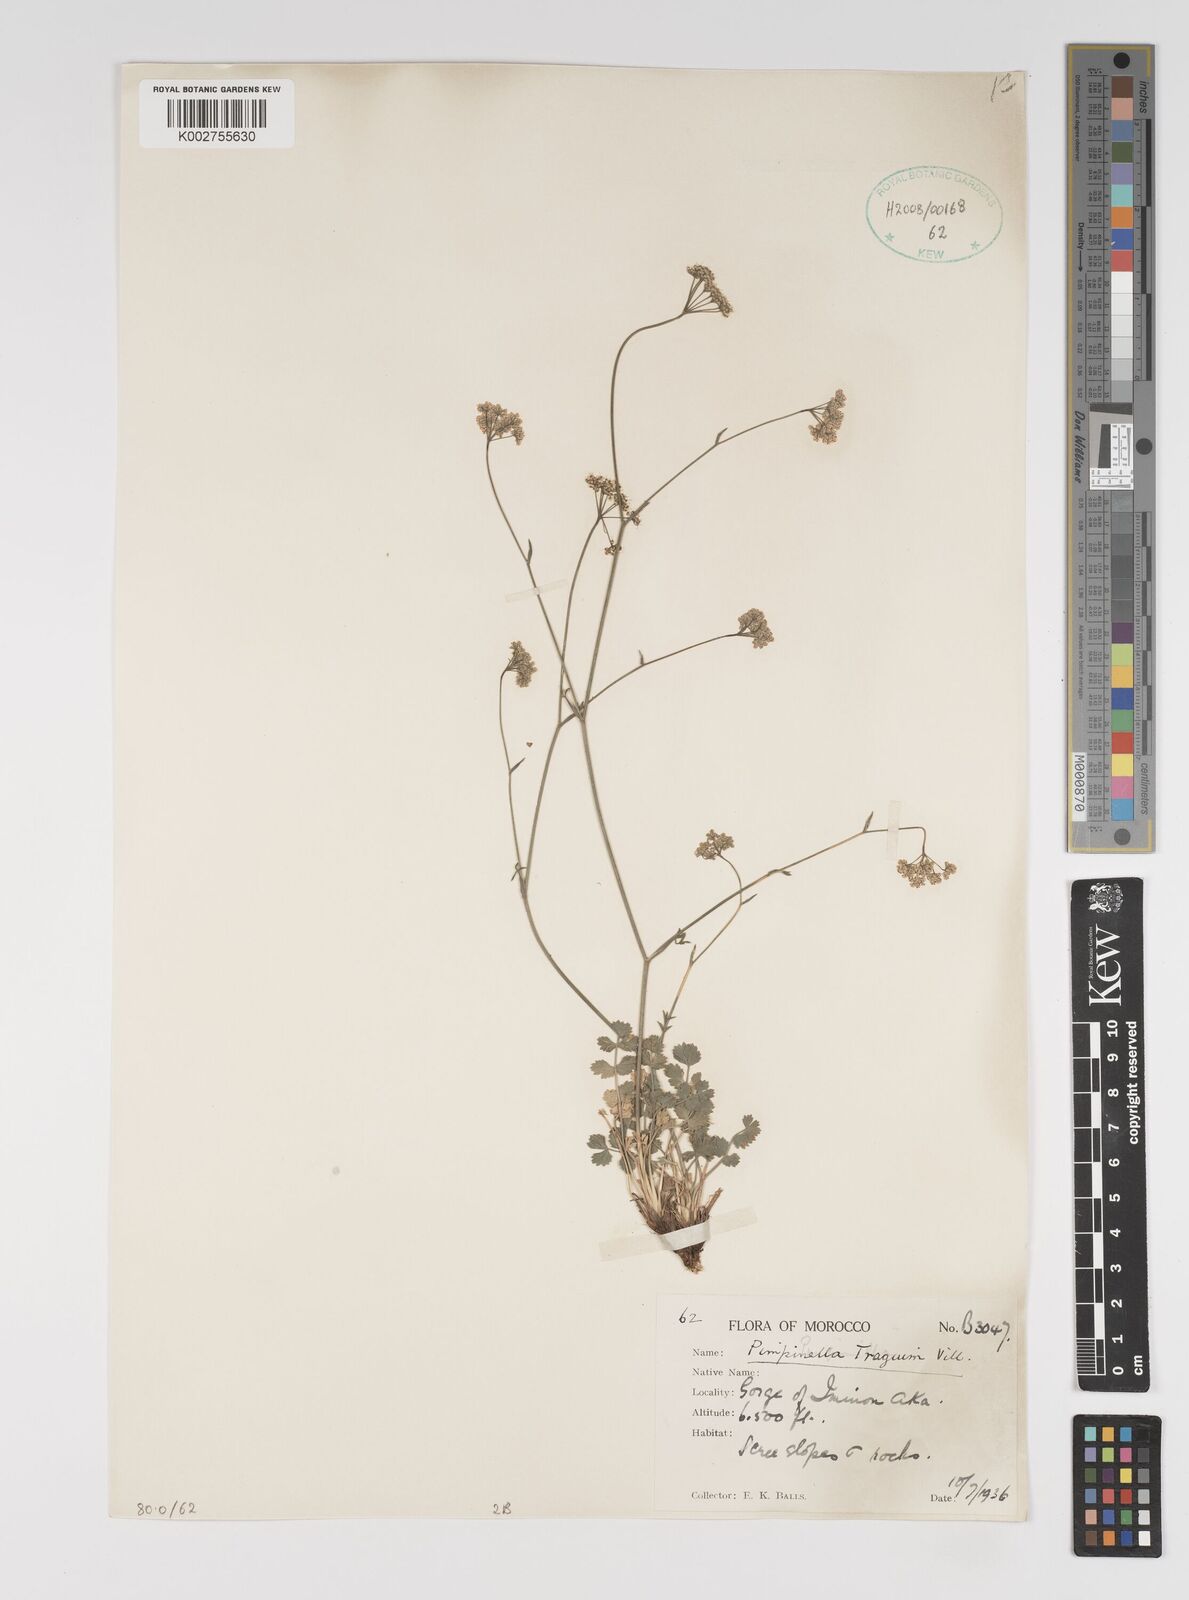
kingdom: Plantae
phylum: Tracheophyta
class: Magnoliopsida
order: Apiales
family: Apiaceae
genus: Pimpinella
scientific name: Pimpinella tragium
